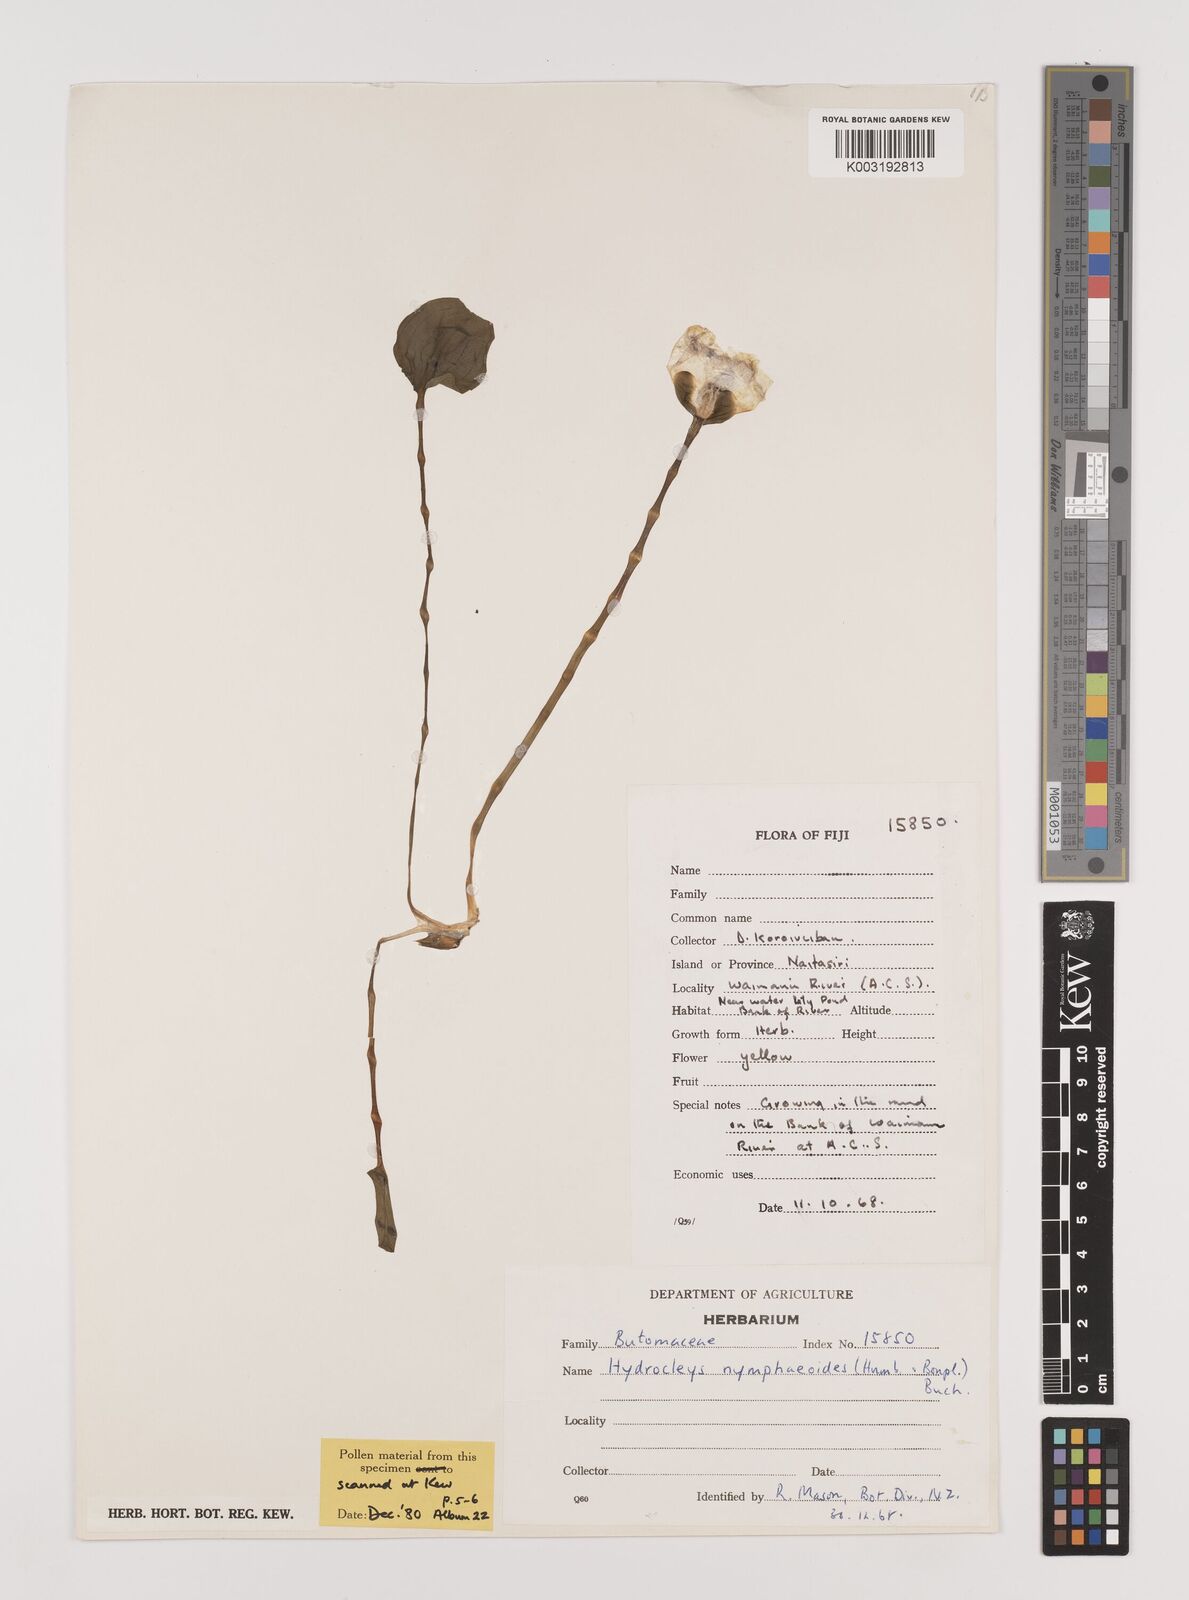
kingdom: Plantae
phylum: Tracheophyta
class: Liliopsida
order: Alismatales
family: Alismataceae
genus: Hydrocleys
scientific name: Hydrocleys nymphoides
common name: Water-poppy
